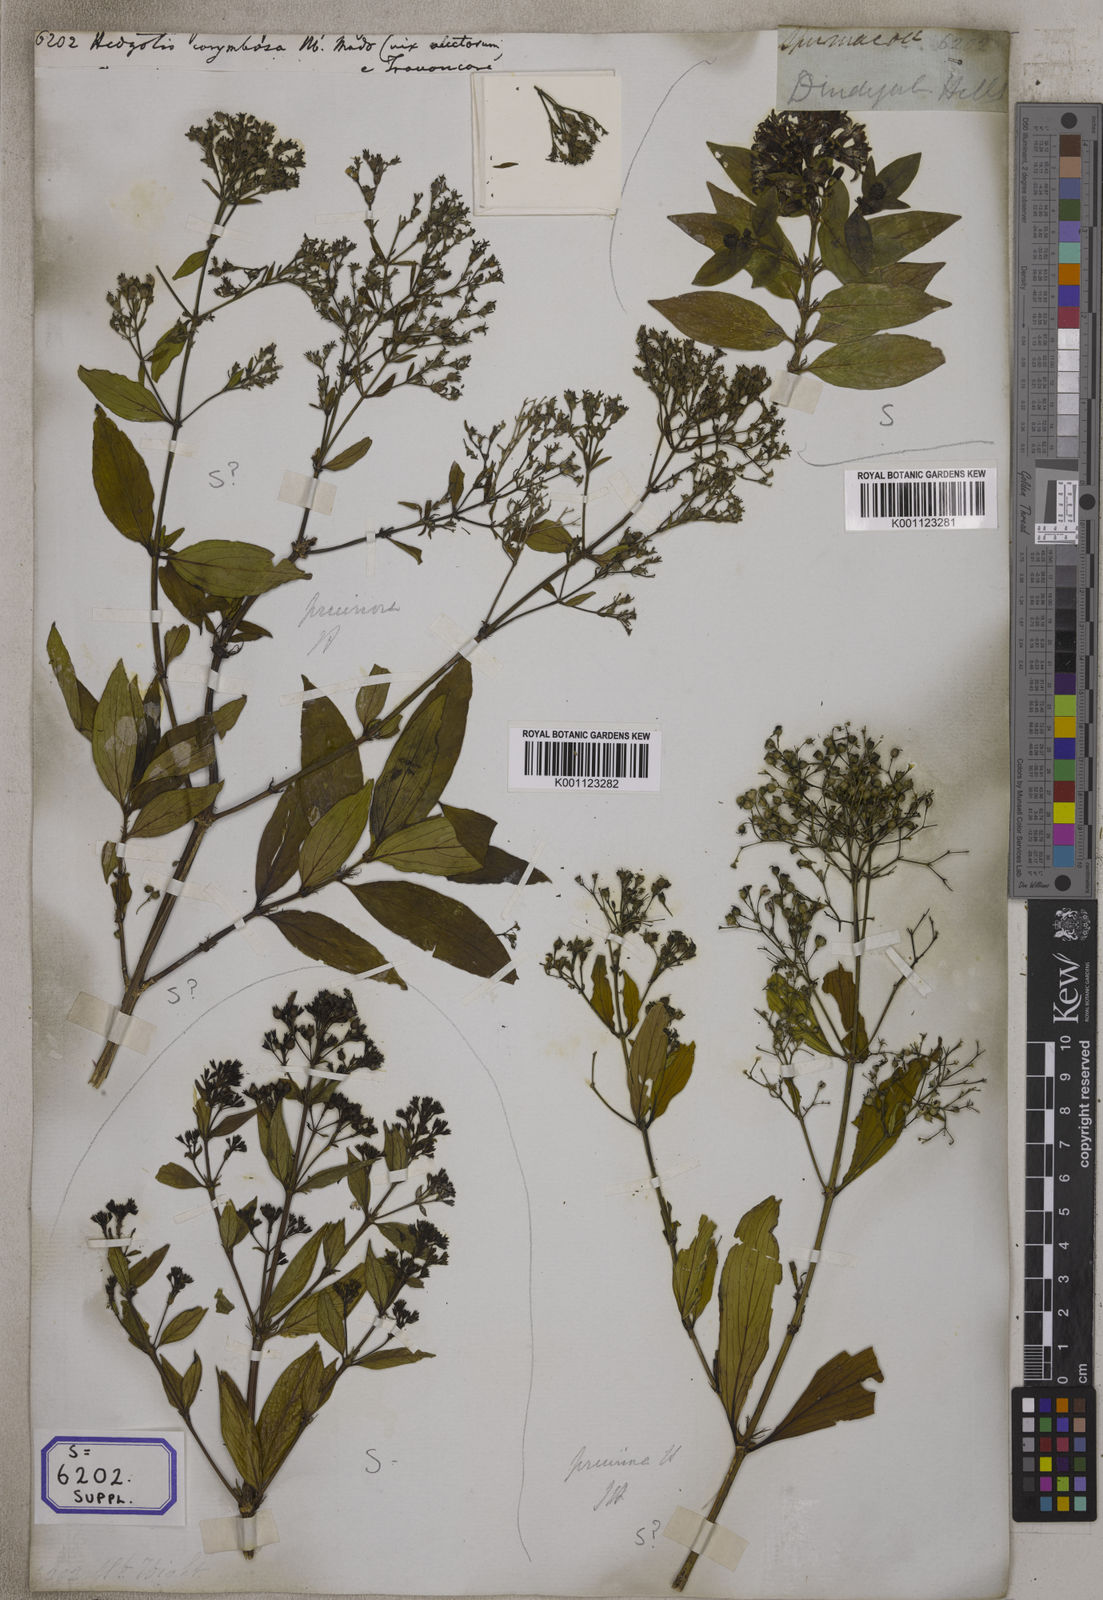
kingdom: Plantae
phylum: Tracheophyta
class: Magnoliopsida
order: Gentianales
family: Rubiaceae
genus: Hedyotis
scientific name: Hedyotis pruinosa
